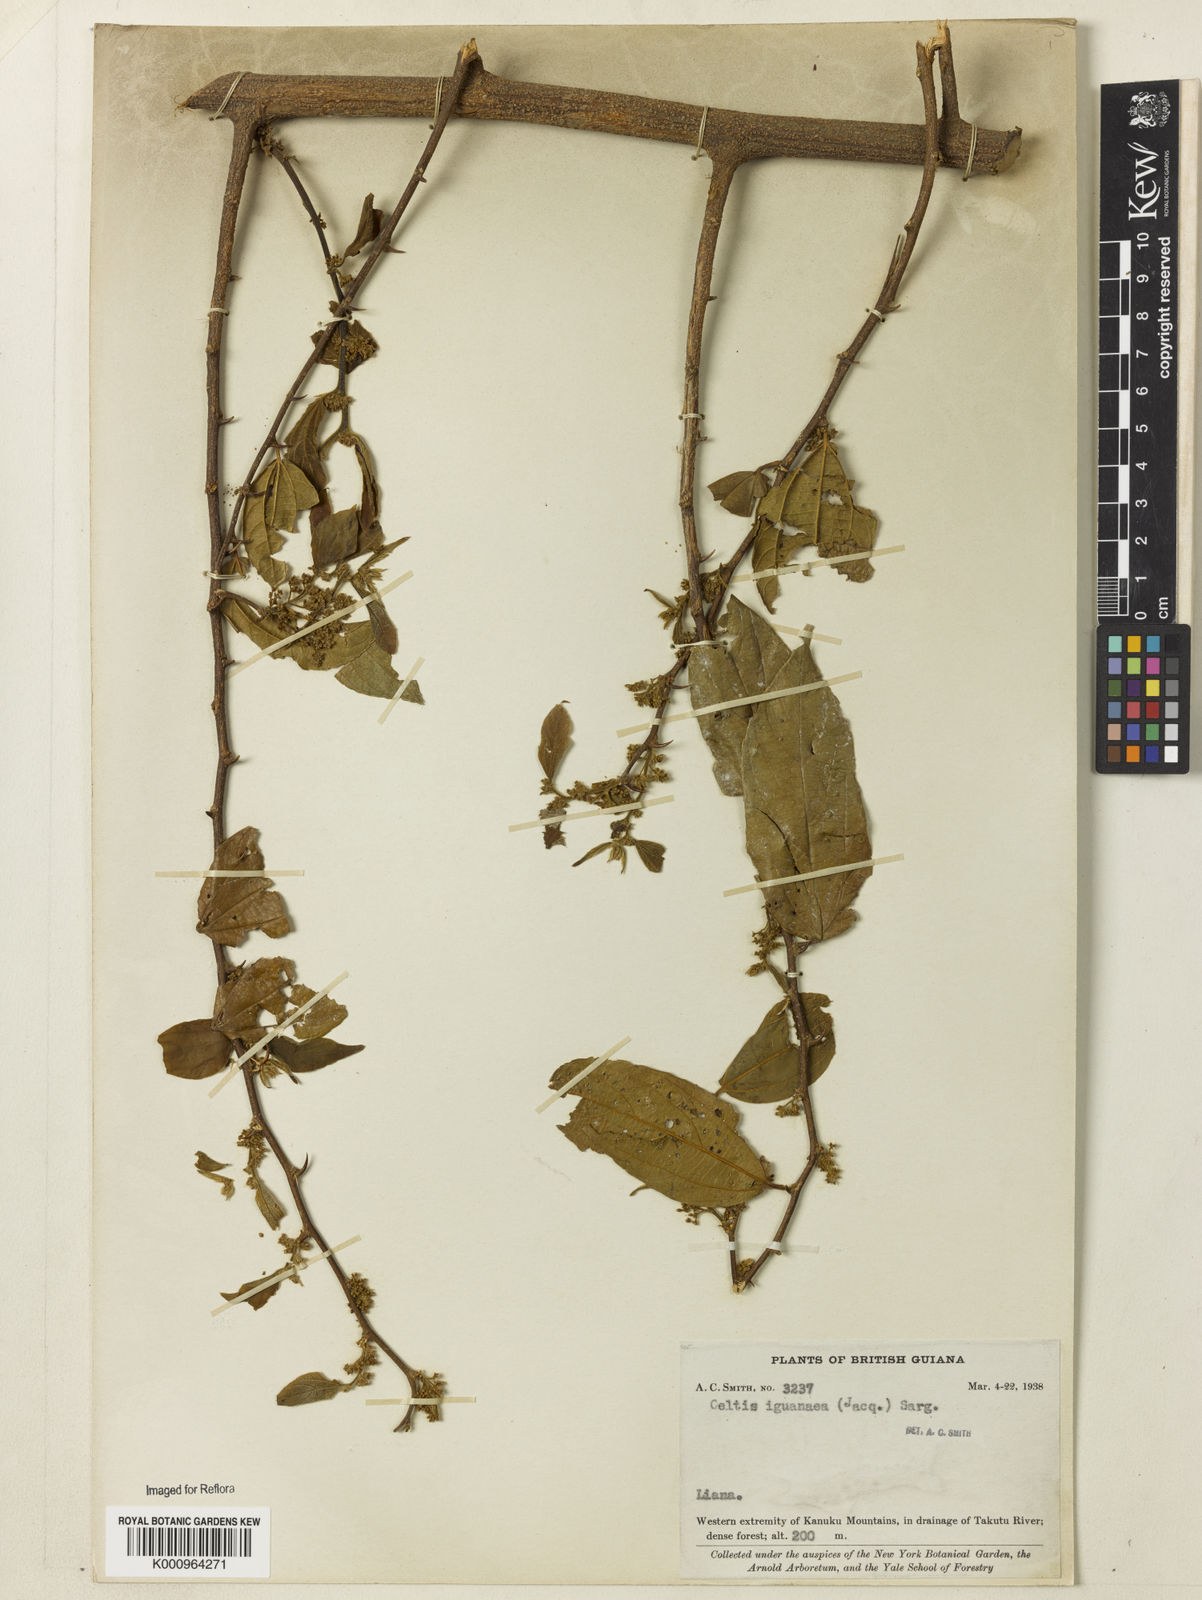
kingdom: Plantae
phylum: Tracheophyta
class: Magnoliopsida
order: Rosales
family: Cannabaceae
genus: Celtis
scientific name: Celtis iguanaea
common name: Iguana hackberry
